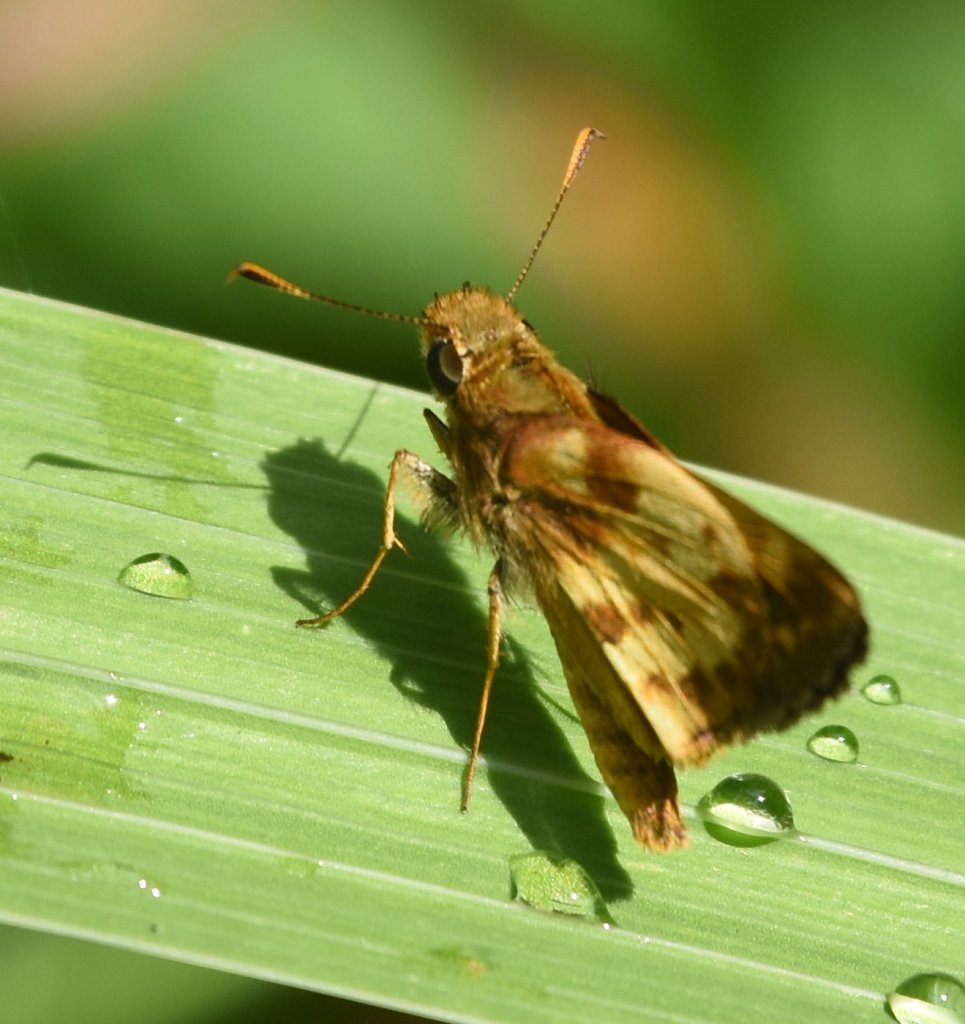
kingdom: Animalia
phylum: Arthropoda
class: Insecta
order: Lepidoptera
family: Hesperiidae
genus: Lon
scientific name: Lon zabulon
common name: Zabulon Skipper
